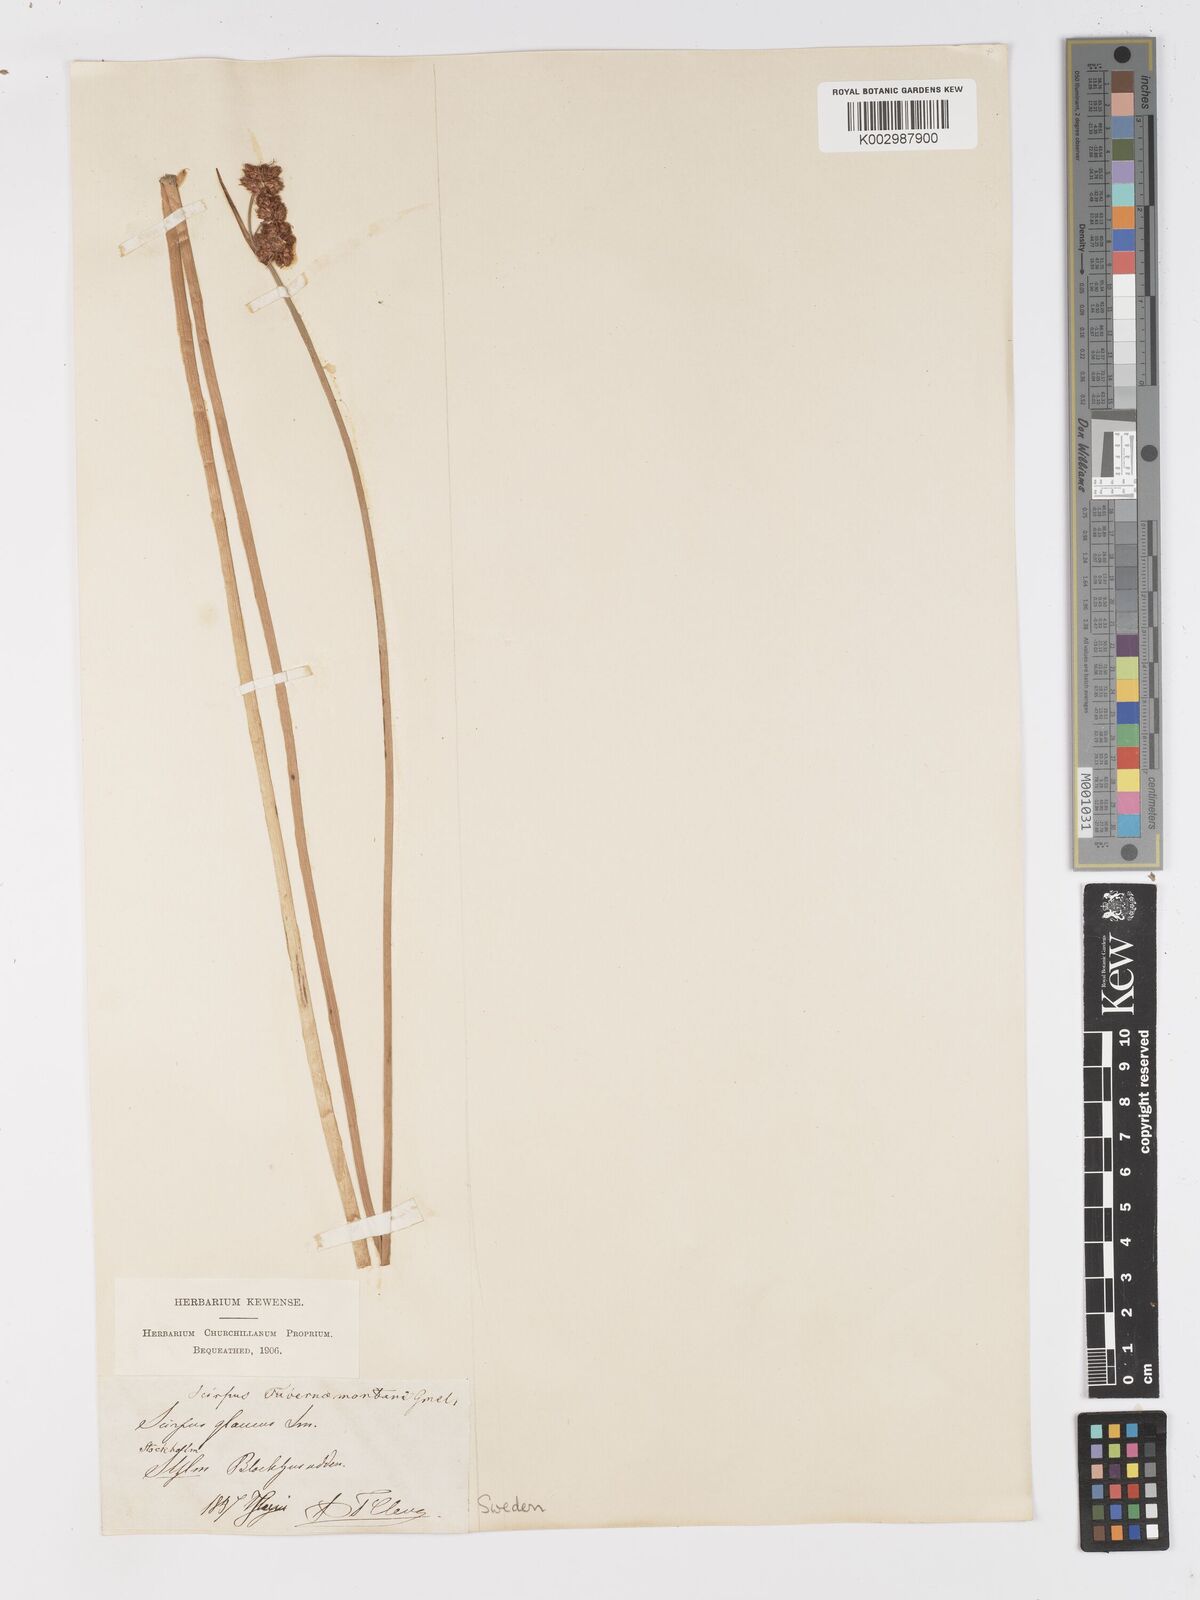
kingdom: Plantae
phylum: Tracheophyta
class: Liliopsida
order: Poales
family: Cyperaceae
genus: Schoenoplectus
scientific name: Schoenoplectus tabernaemontani
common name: Grey club-rush
